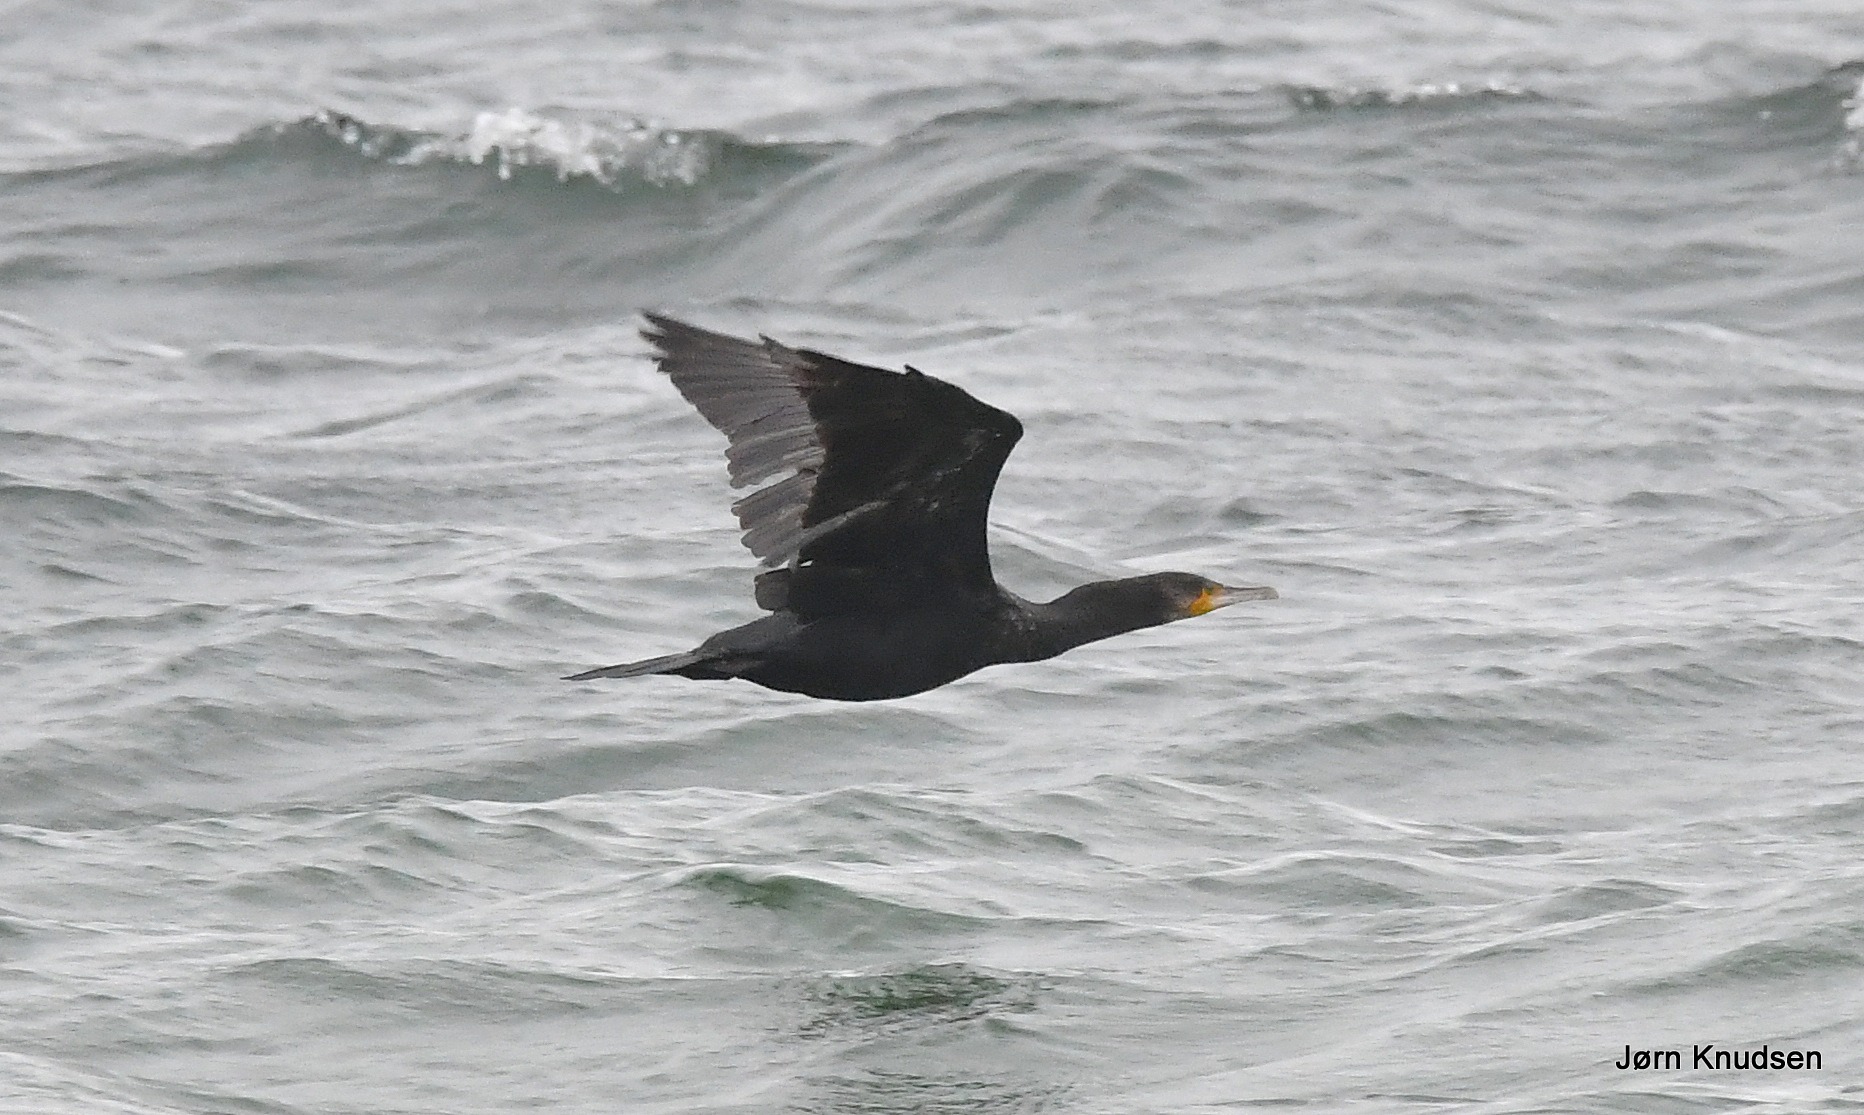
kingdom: Animalia
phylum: Chordata
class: Aves
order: Suliformes
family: Phalacrocoracidae
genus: Phalacrocorax
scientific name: Phalacrocorax carbo
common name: Skarv
